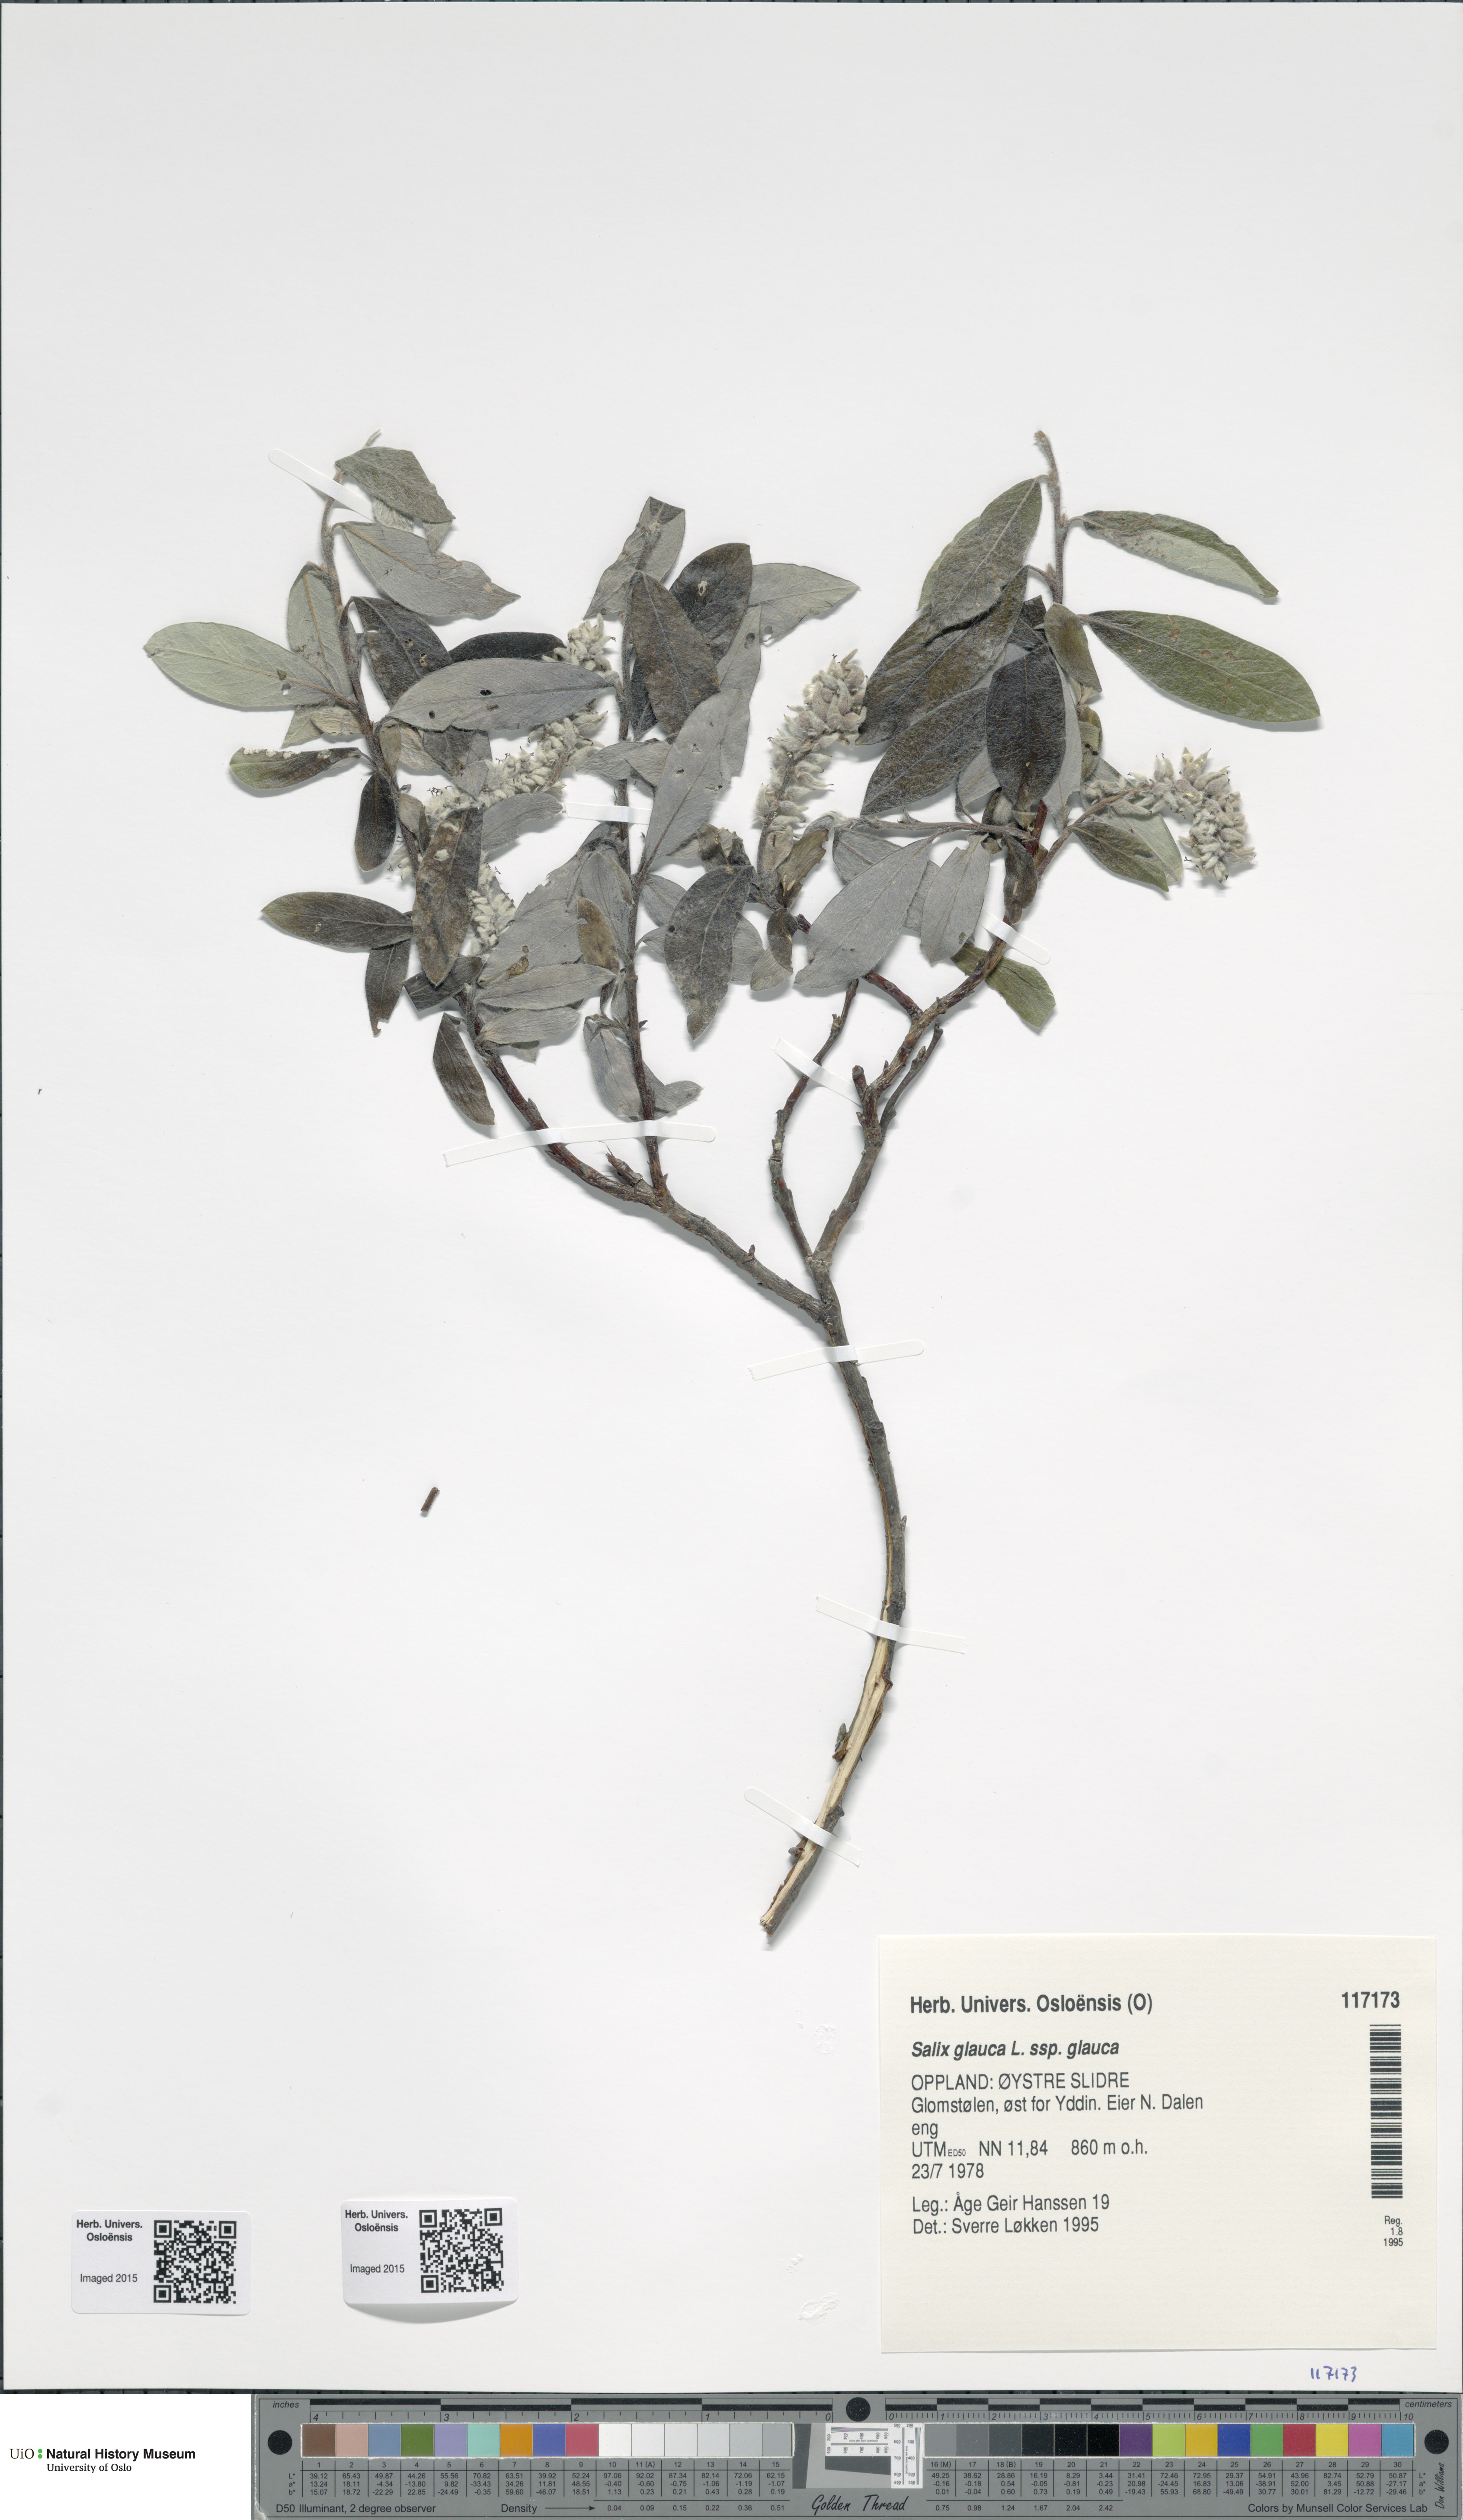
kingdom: Plantae
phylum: Tracheophyta
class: Magnoliopsida
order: Malpighiales
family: Salicaceae
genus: Salix
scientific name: Salix glauca
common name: Glaucous willow
